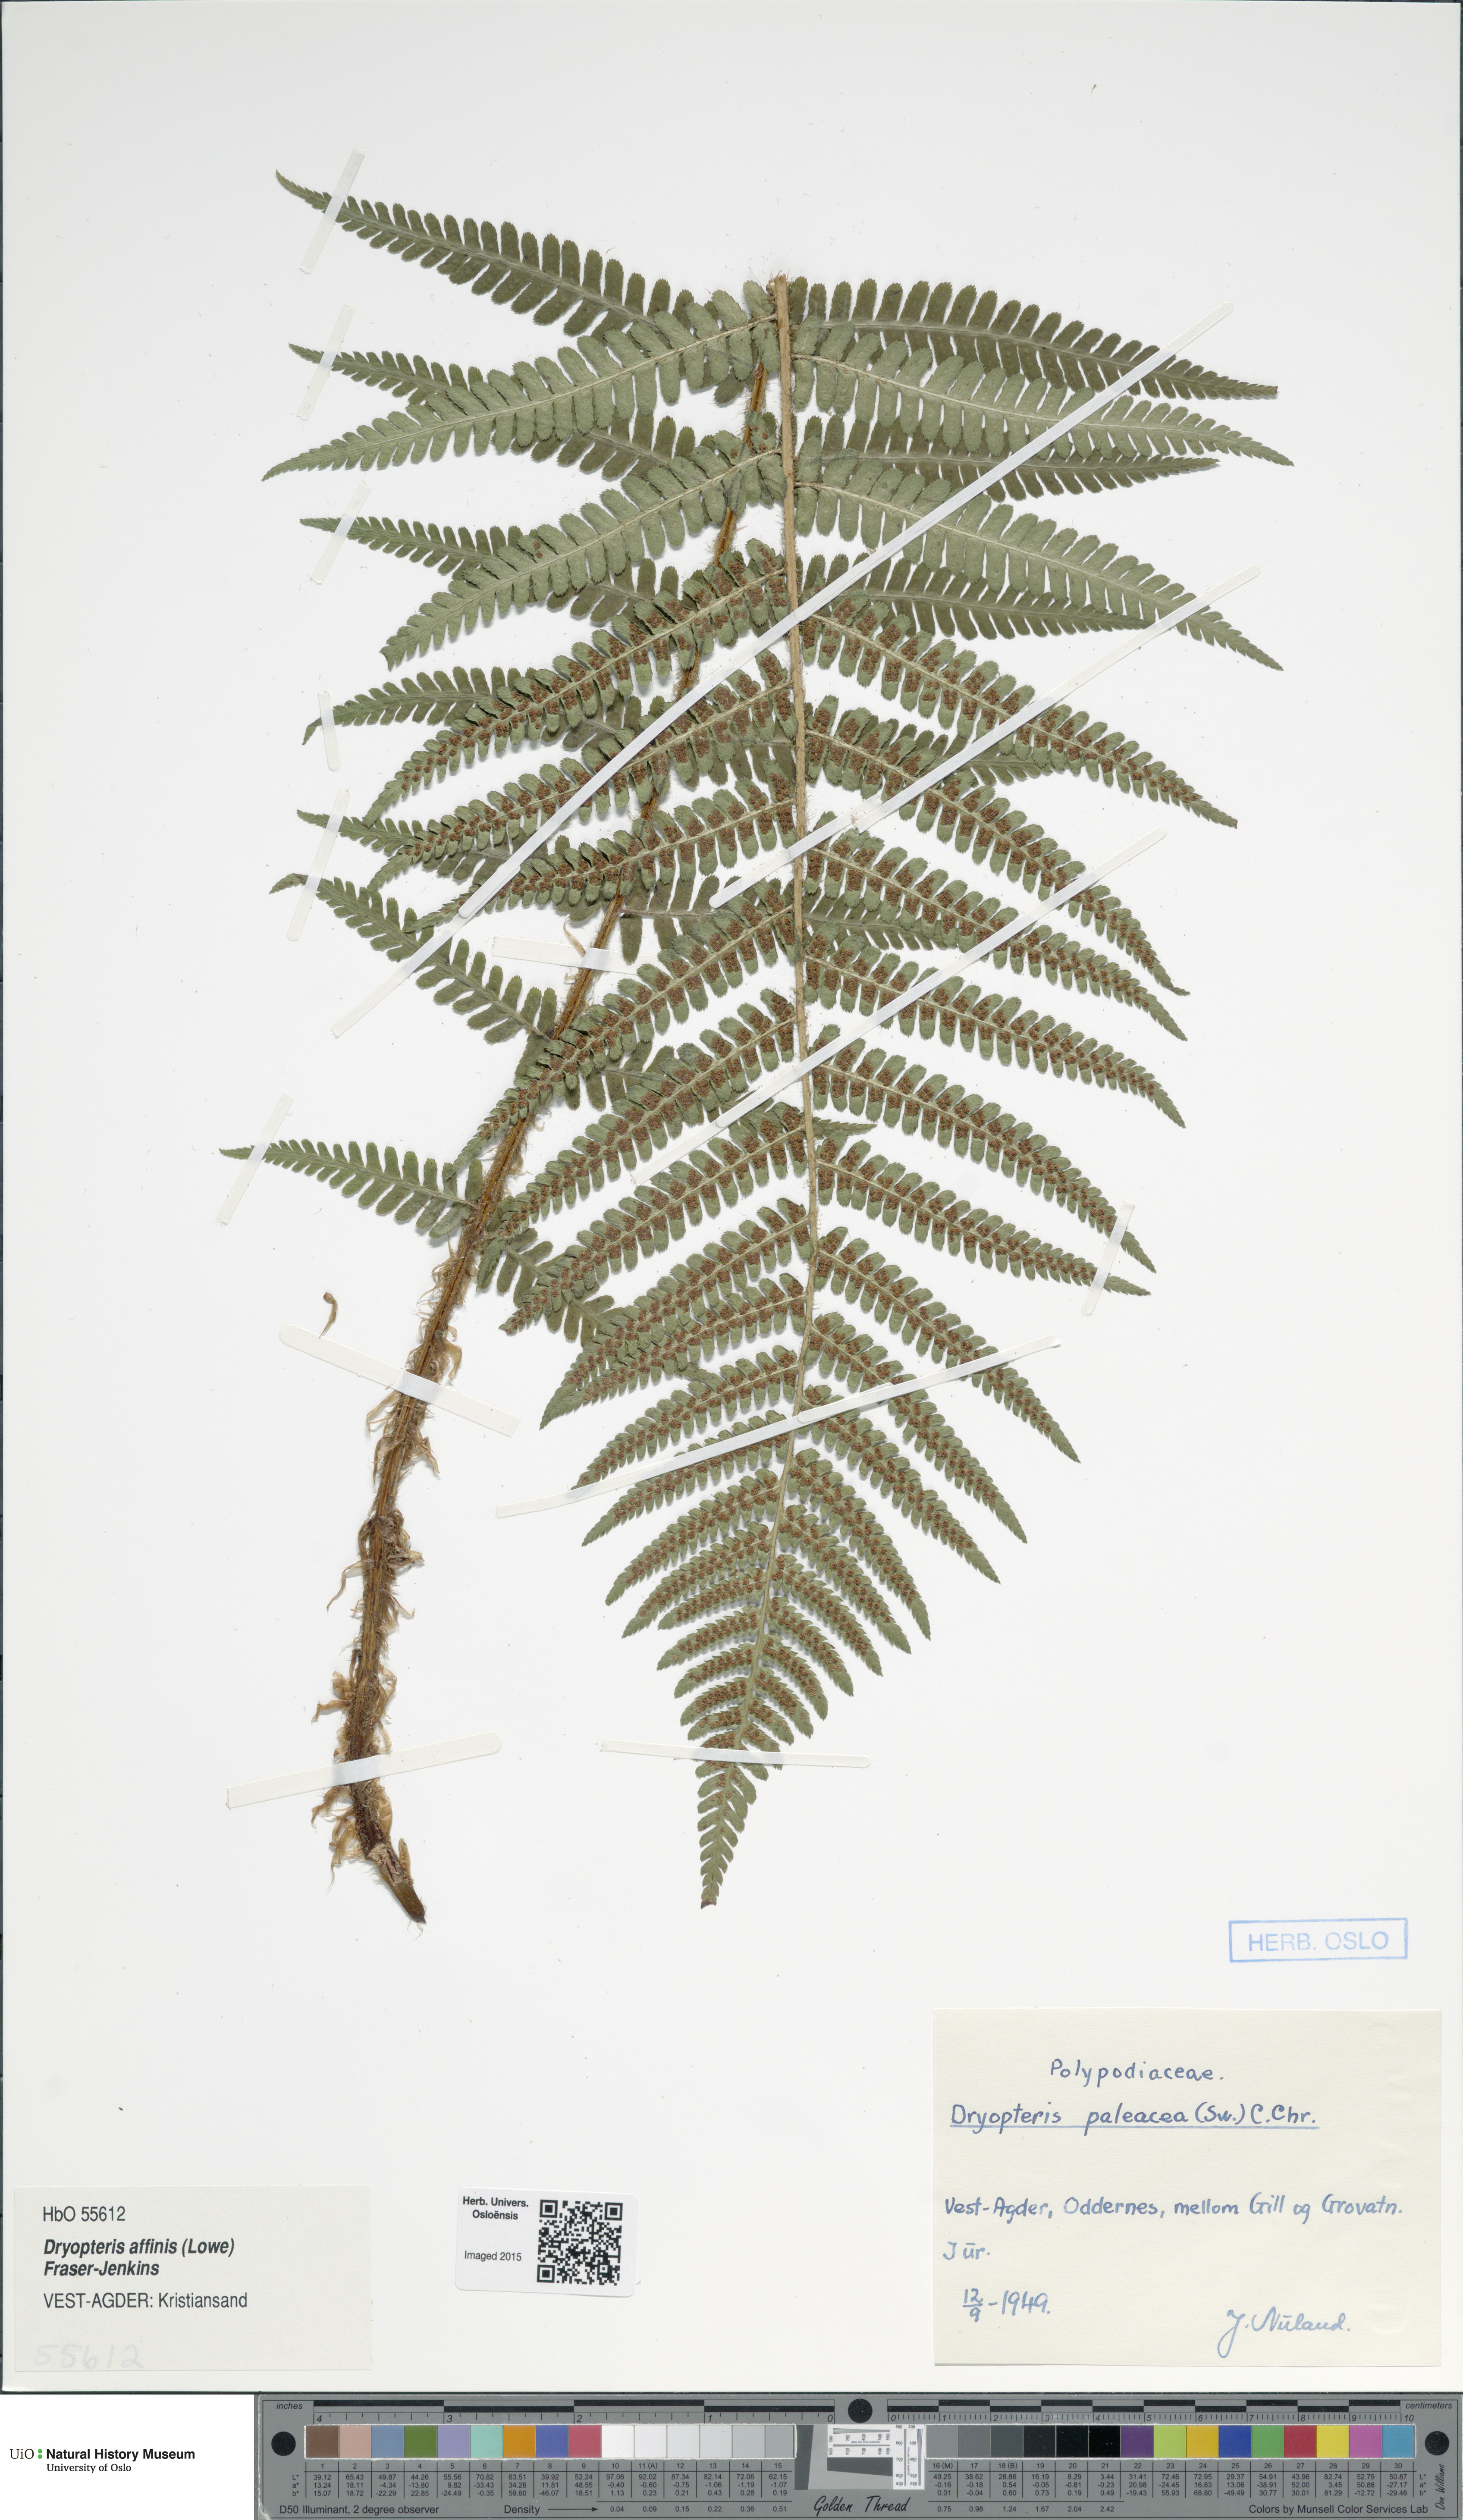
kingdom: Plantae
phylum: Tracheophyta
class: Polypodiopsida
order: Polypodiales
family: Dryopteridaceae
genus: Dryopteris
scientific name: Dryopteris wallichiana
